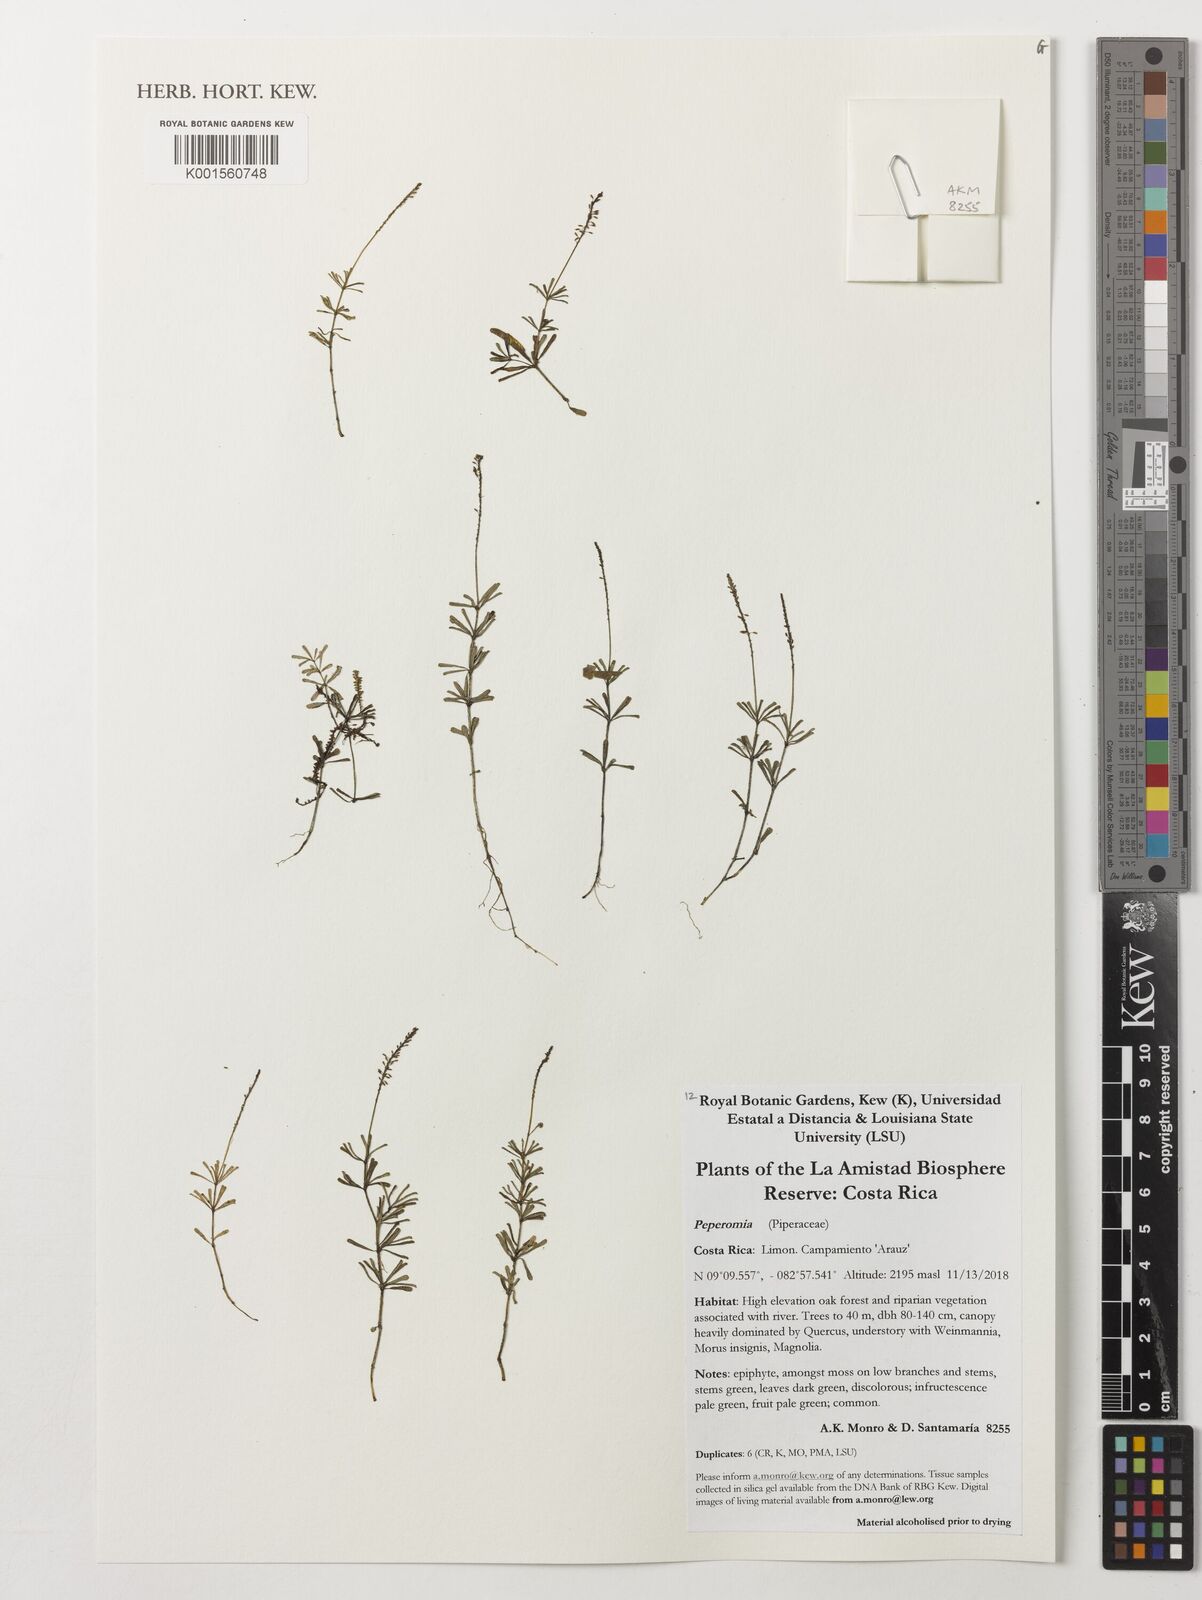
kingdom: Plantae
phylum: Tracheophyta
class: Magnoliopsida
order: Piperales
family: Piperaceae
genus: Peperomia
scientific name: Peperomia
